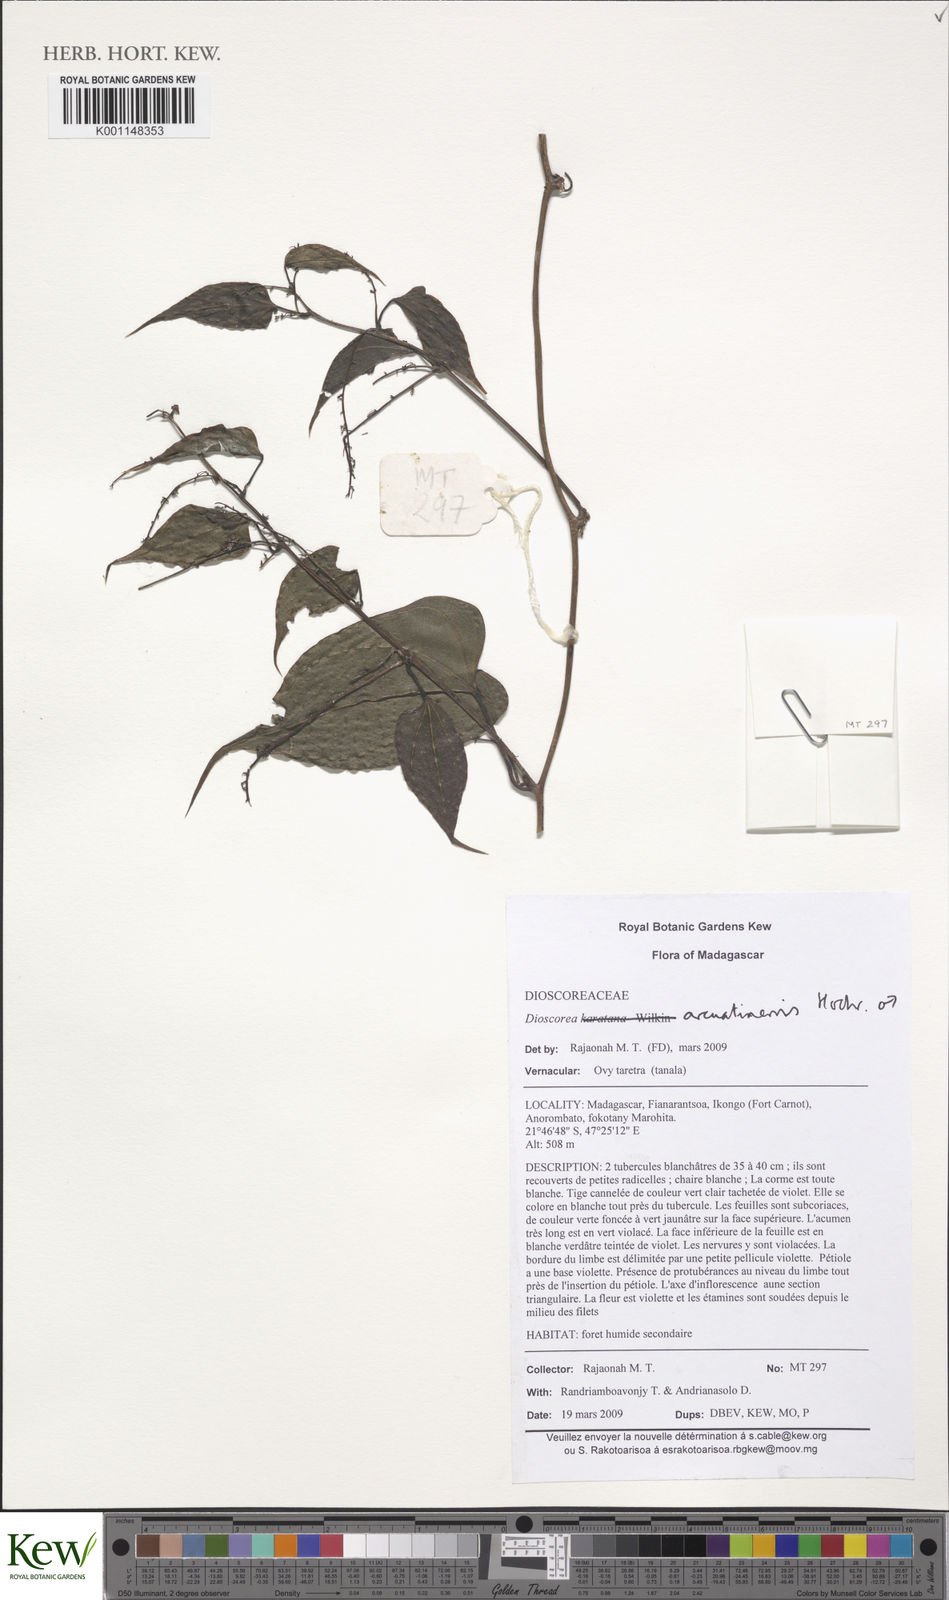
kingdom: Plantae
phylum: Tracheophyta
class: Liliopsida
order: Dioscoreales
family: Dioscoreaceae
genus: Dioscorea
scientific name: Dioscorea arcuatinervis
